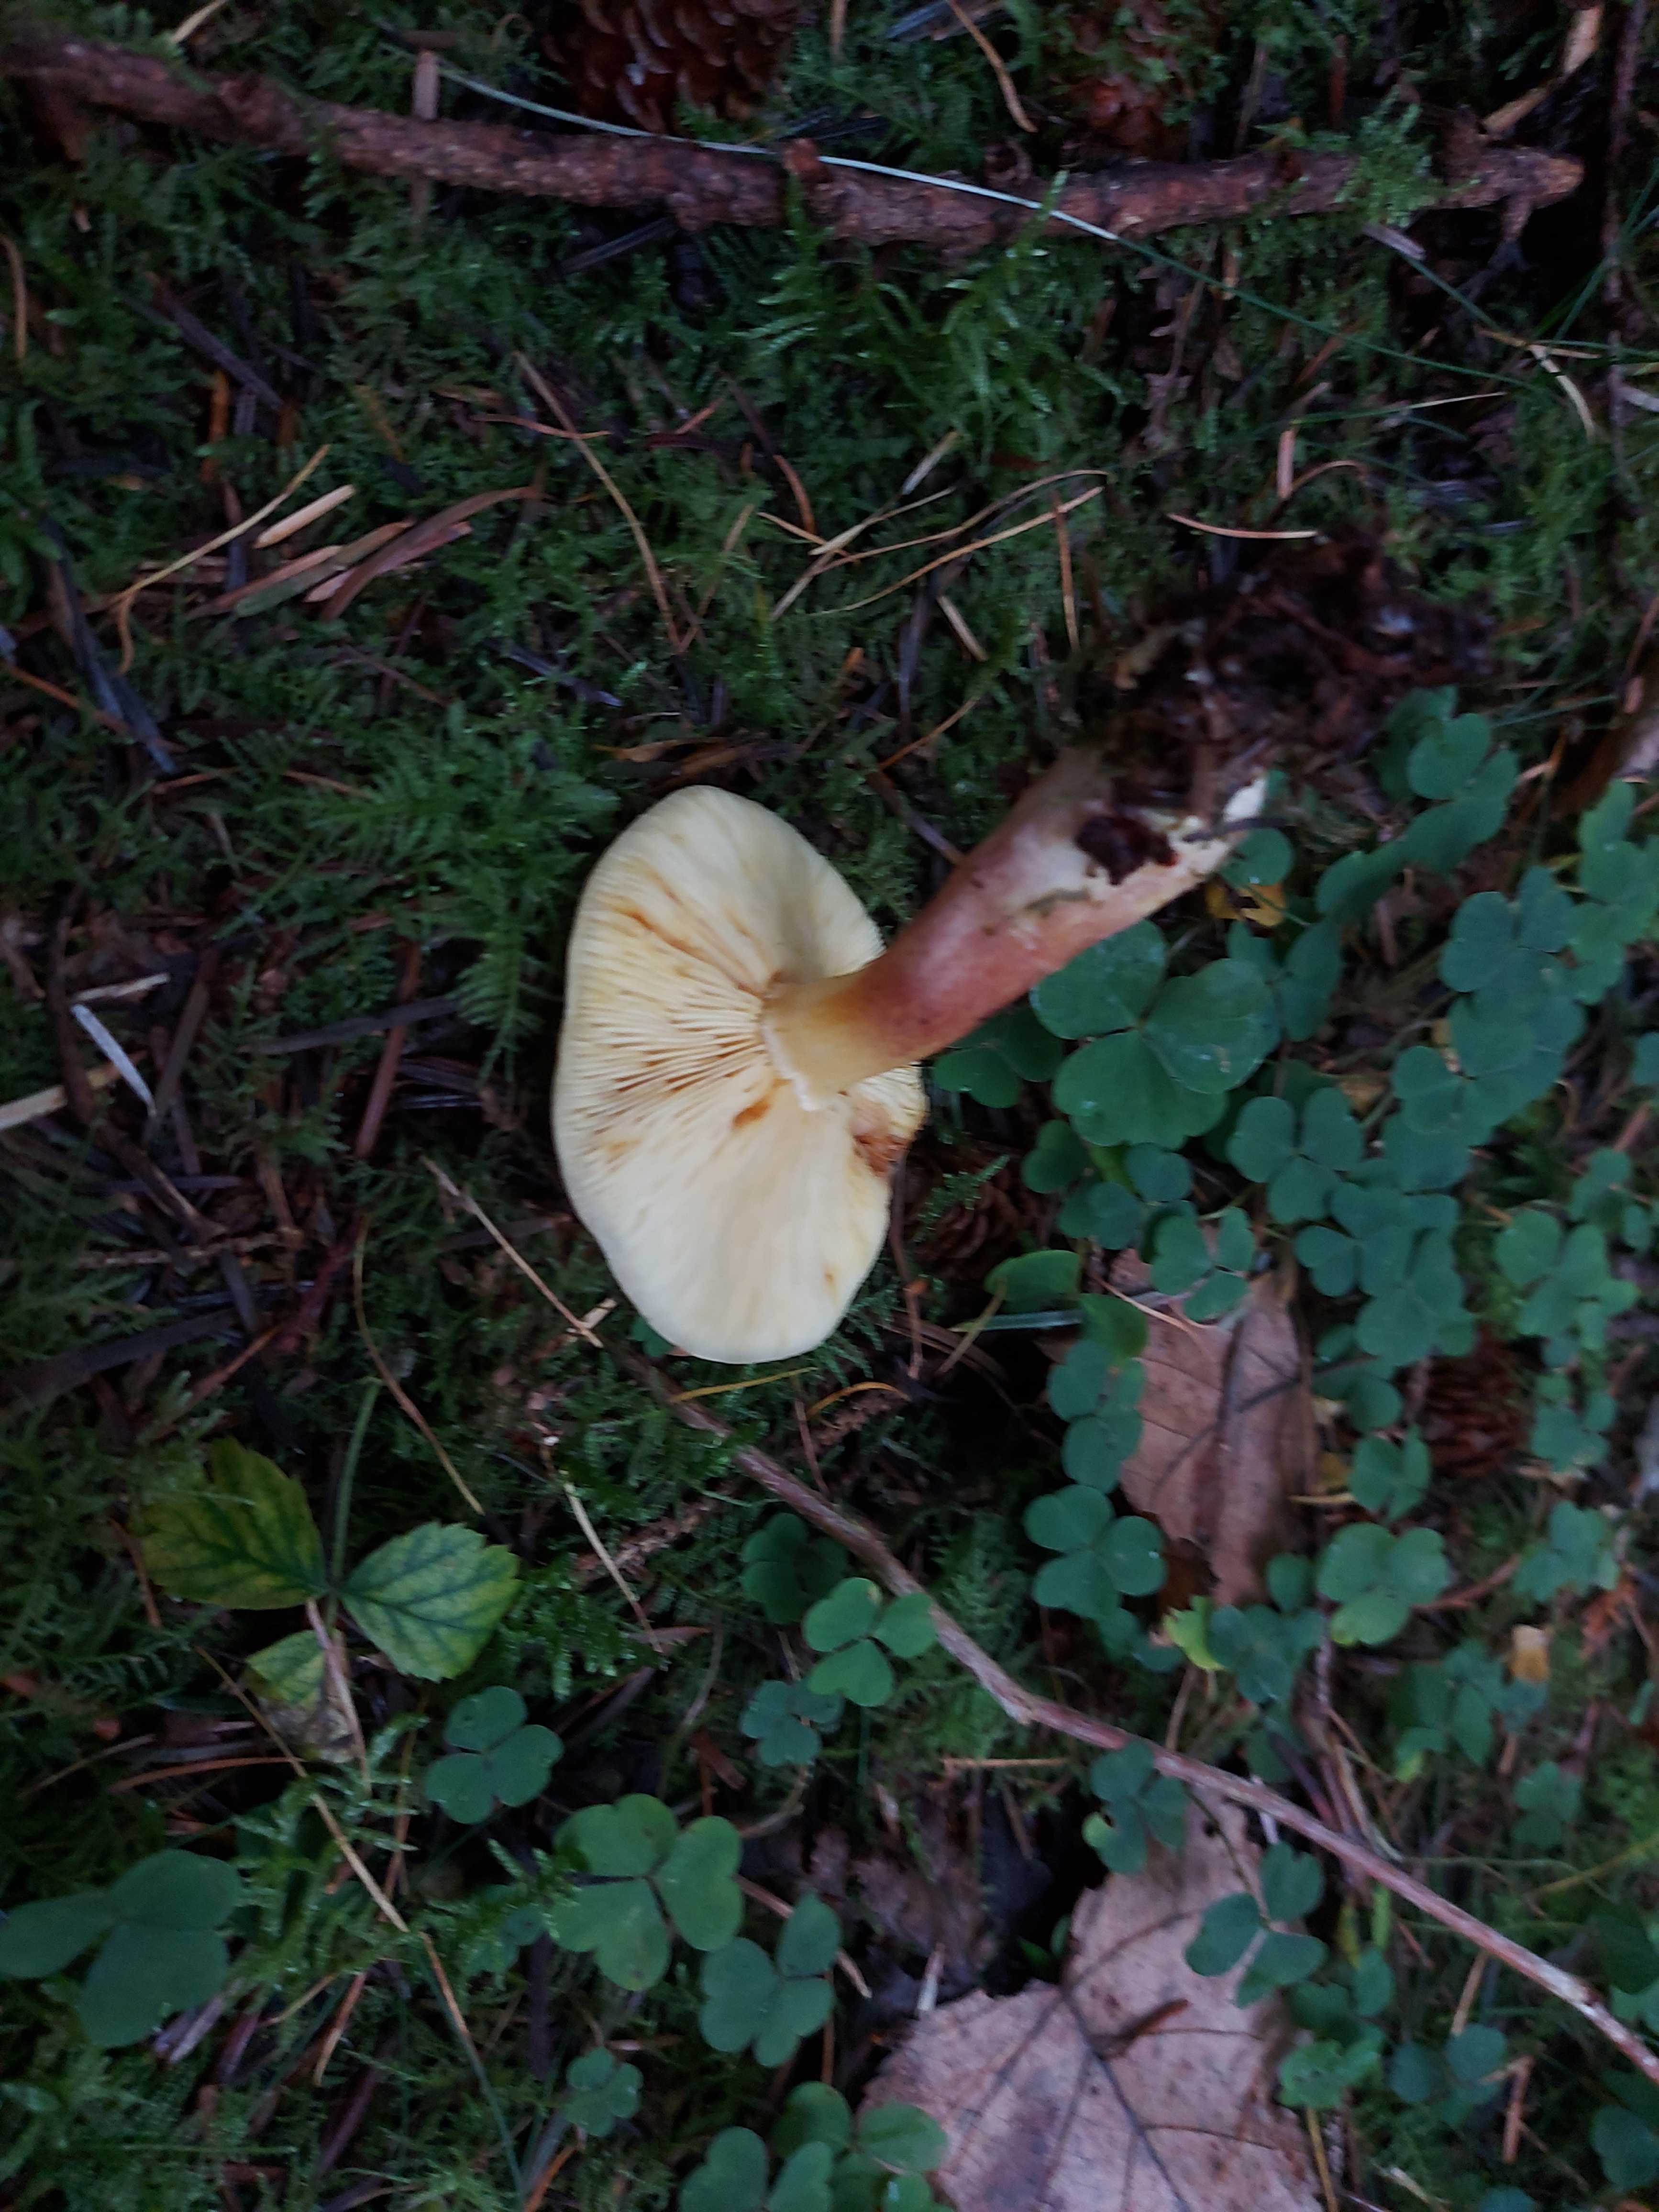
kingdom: Fungi
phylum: Basidiomycota
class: Agaricomycetes
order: Agaricales
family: Tricholomataceae
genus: Tricholomopsis
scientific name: Tricholomopsis rutilans
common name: purpur-væbnerhat
